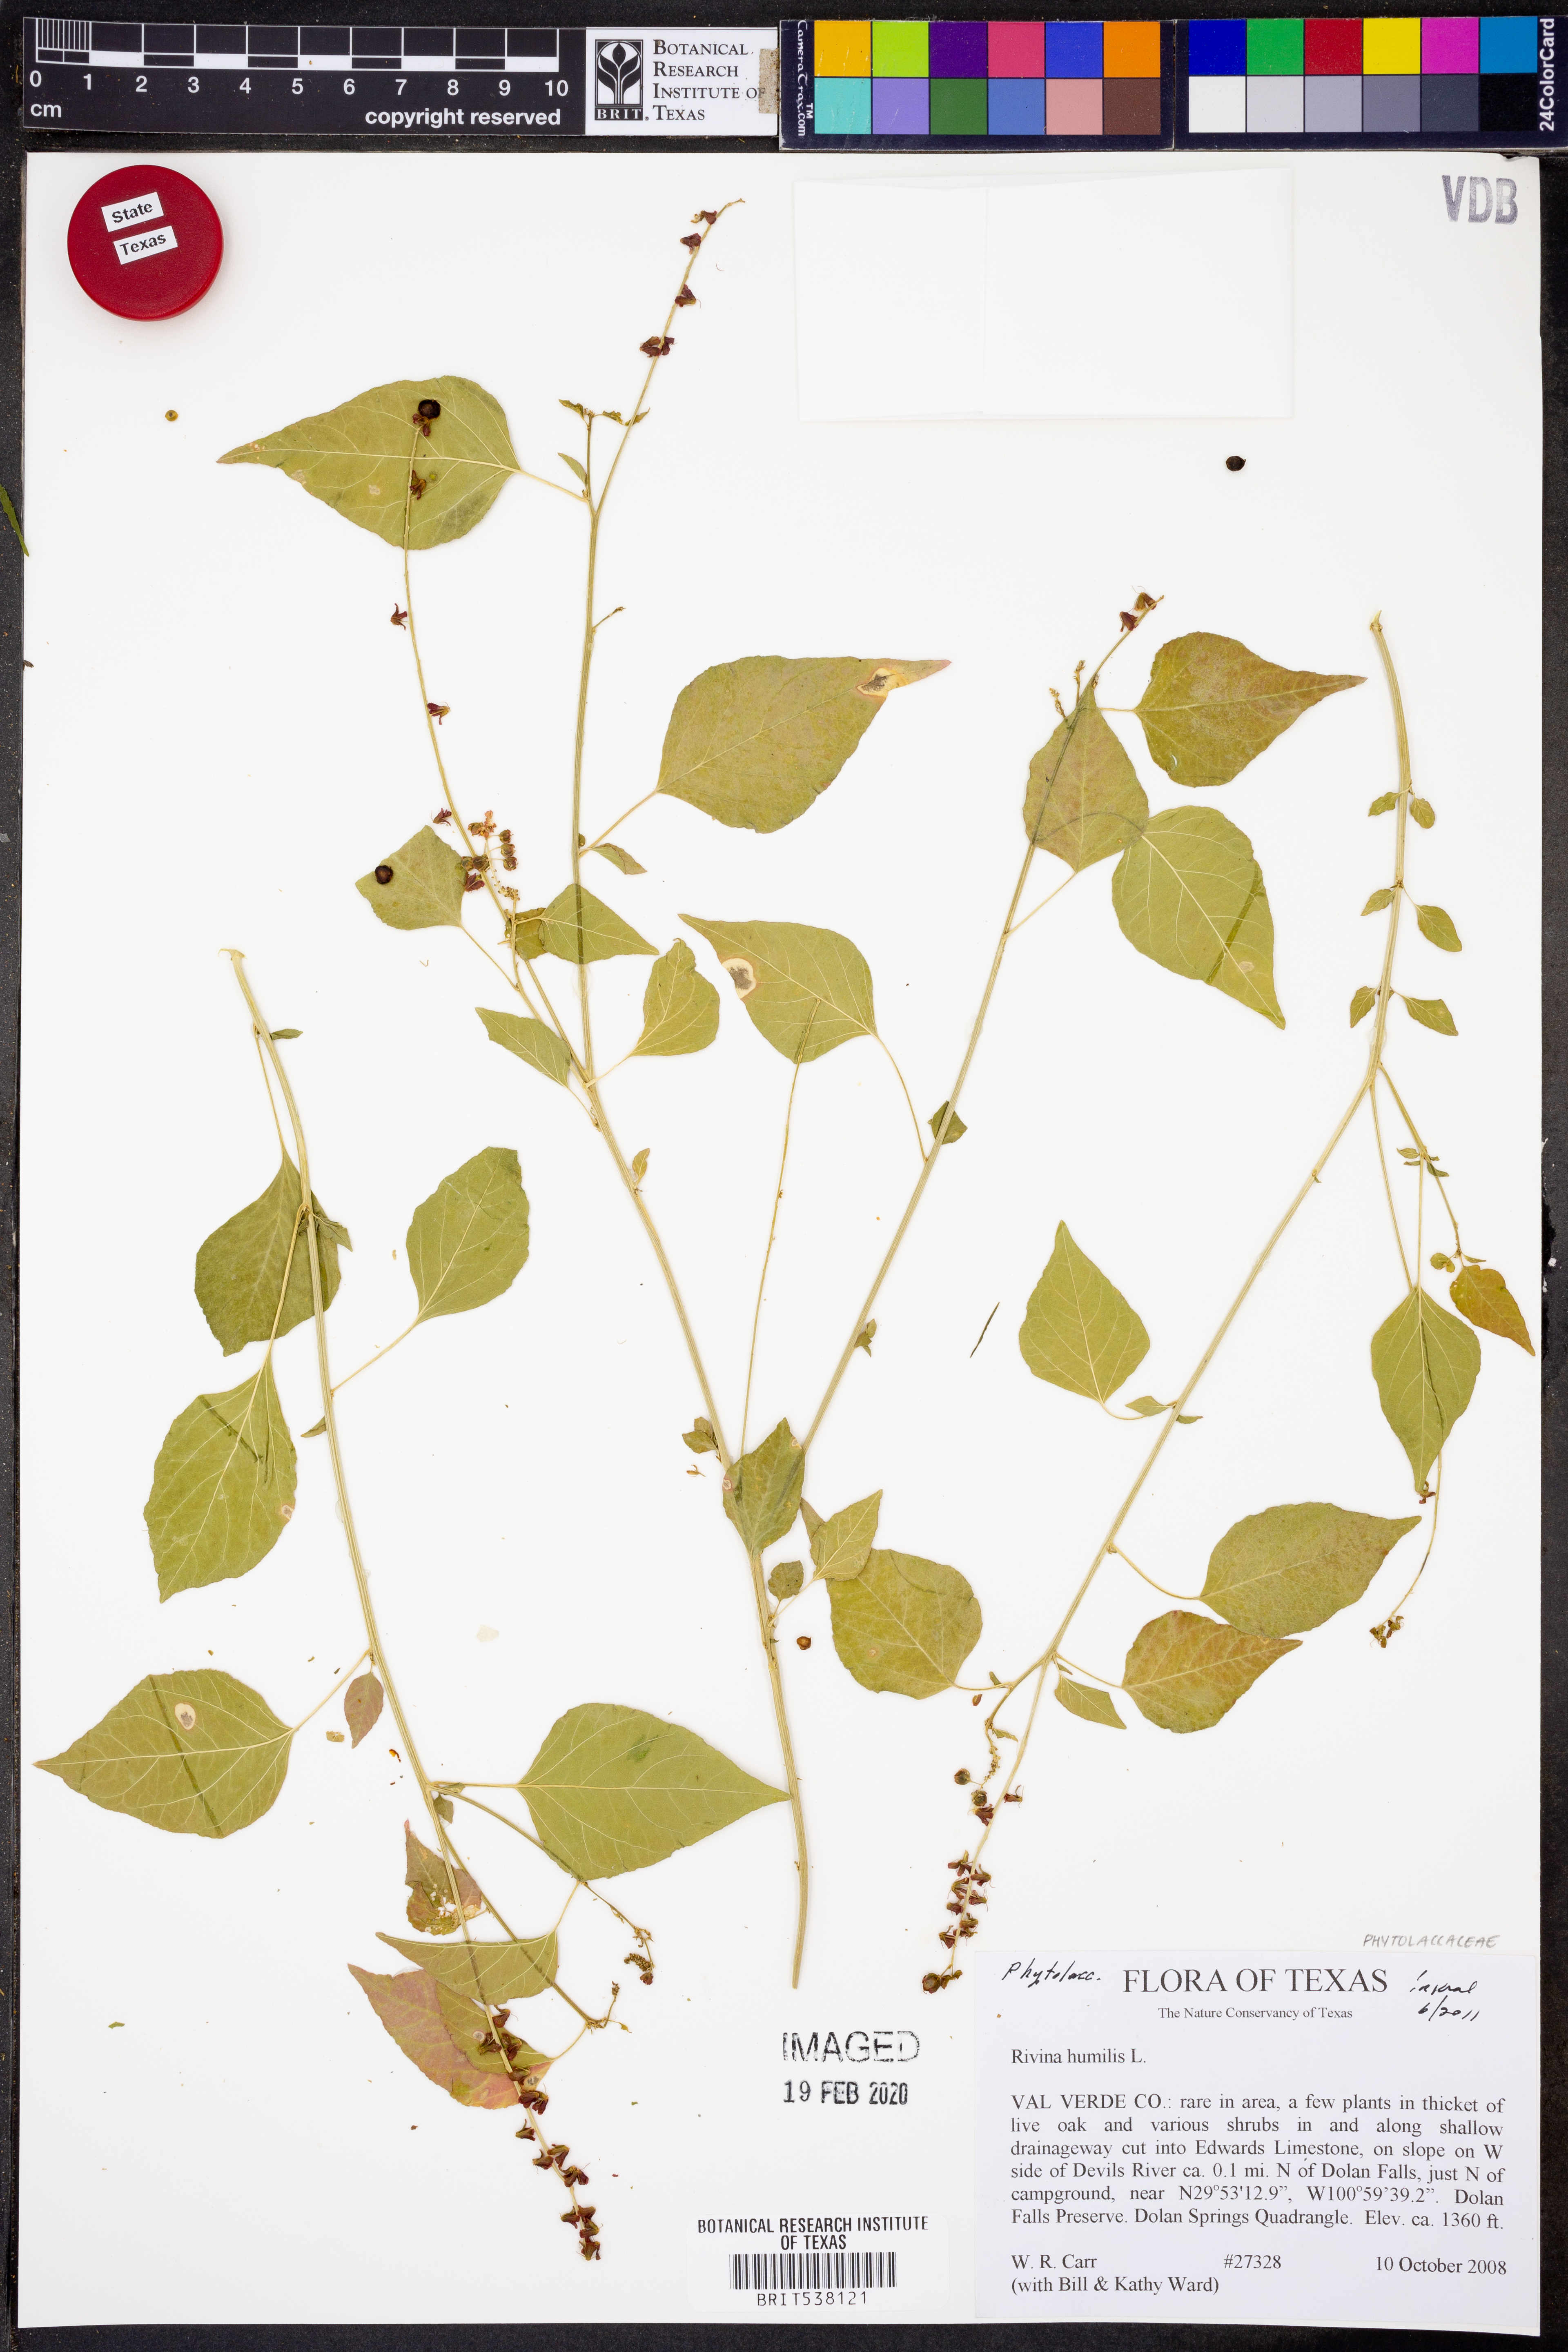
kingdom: Plantae
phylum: Tracheophyta
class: Magnoliopsida
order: Caryophyllales
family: Phytolaccaceae
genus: Rivina
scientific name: Rivina humilis
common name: Rougeplant
